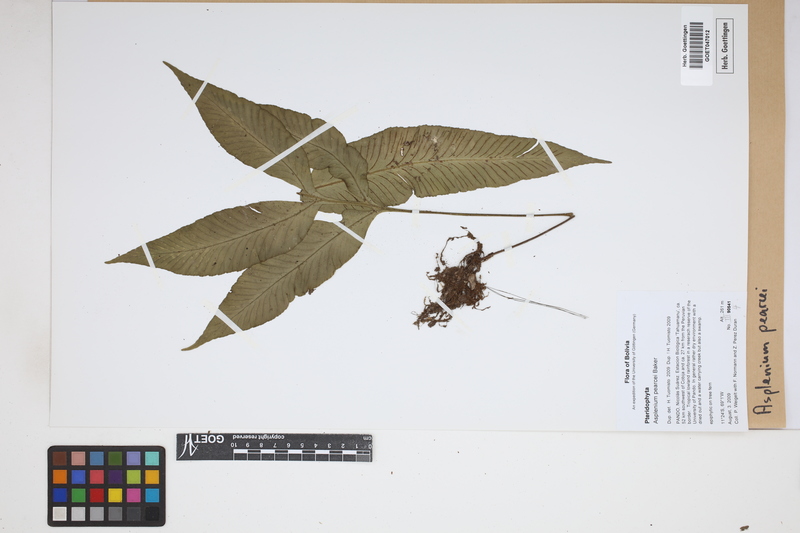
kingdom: Plantae
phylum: Tracheophyta
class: Polypodiopsida
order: Polypodiales
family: Aspleniaceae
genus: Asplenium
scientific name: Asplenium pearcei
